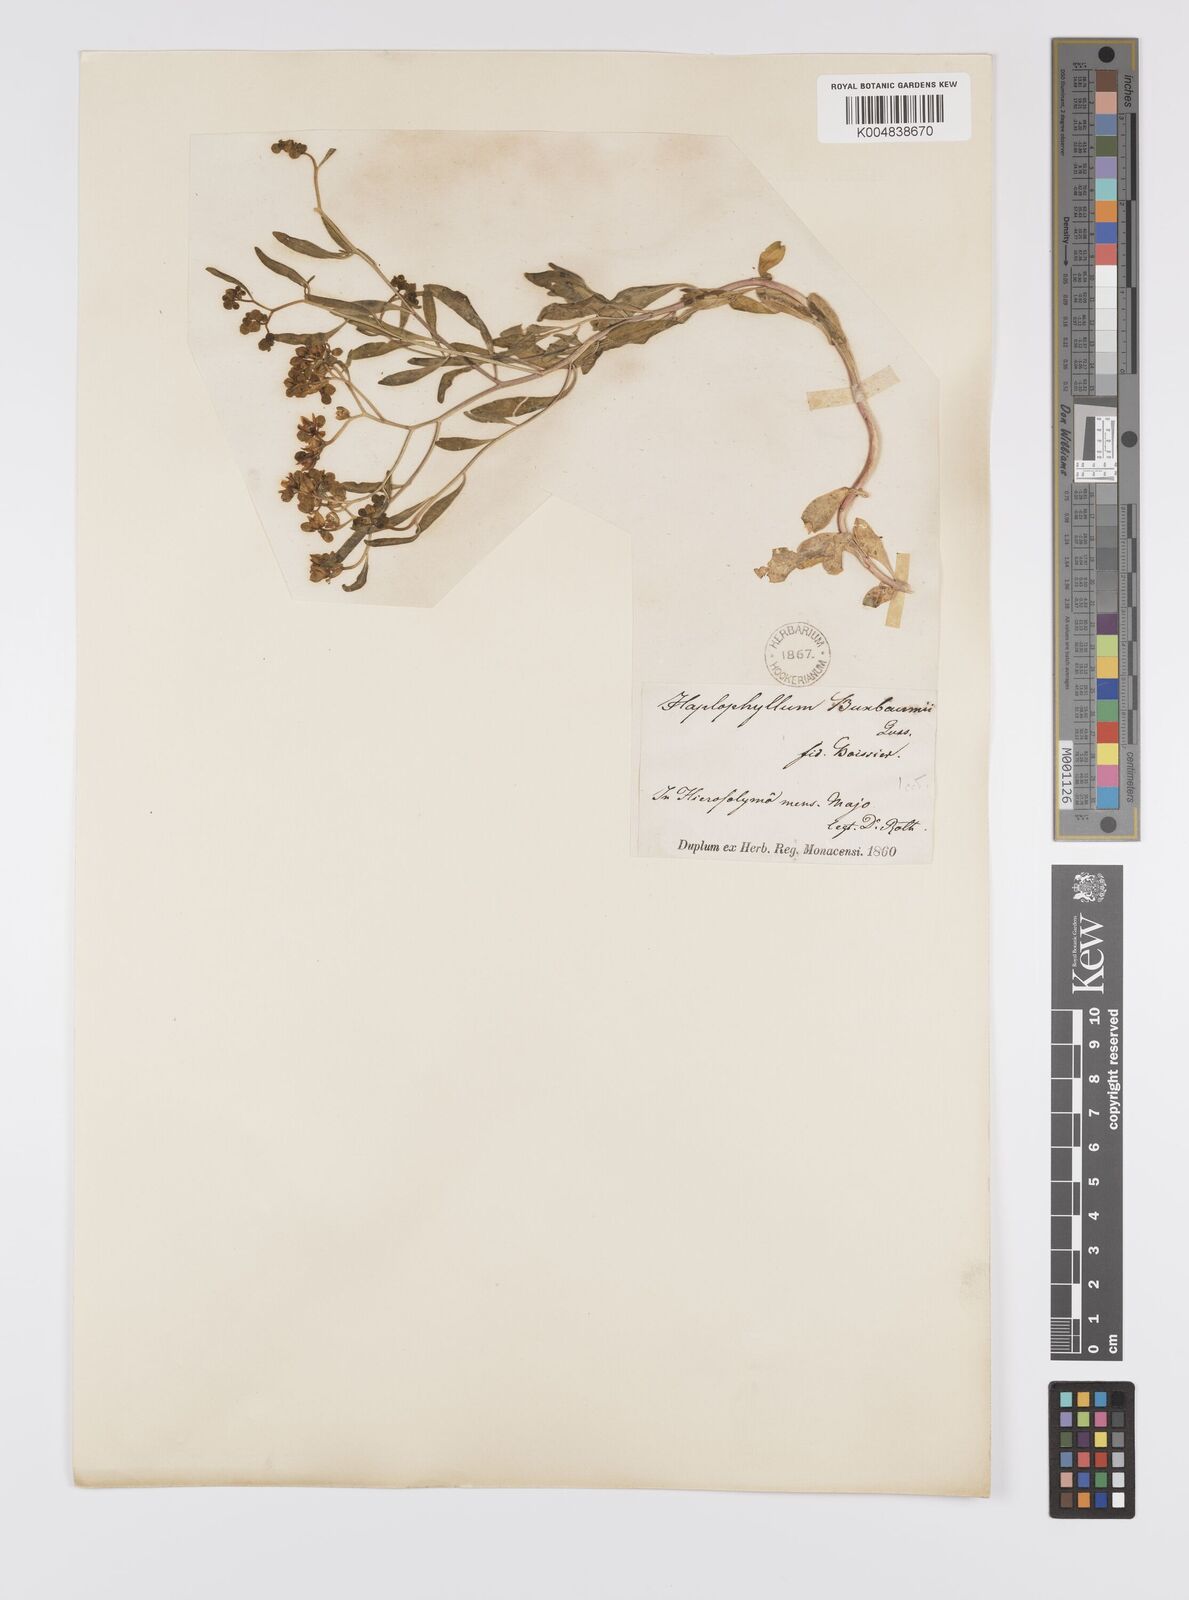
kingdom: Plantae
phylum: Tracheophyta
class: Magnoliopsida
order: Sapindales
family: Rutaceae
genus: Haplophyllum
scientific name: Haplophyllum
